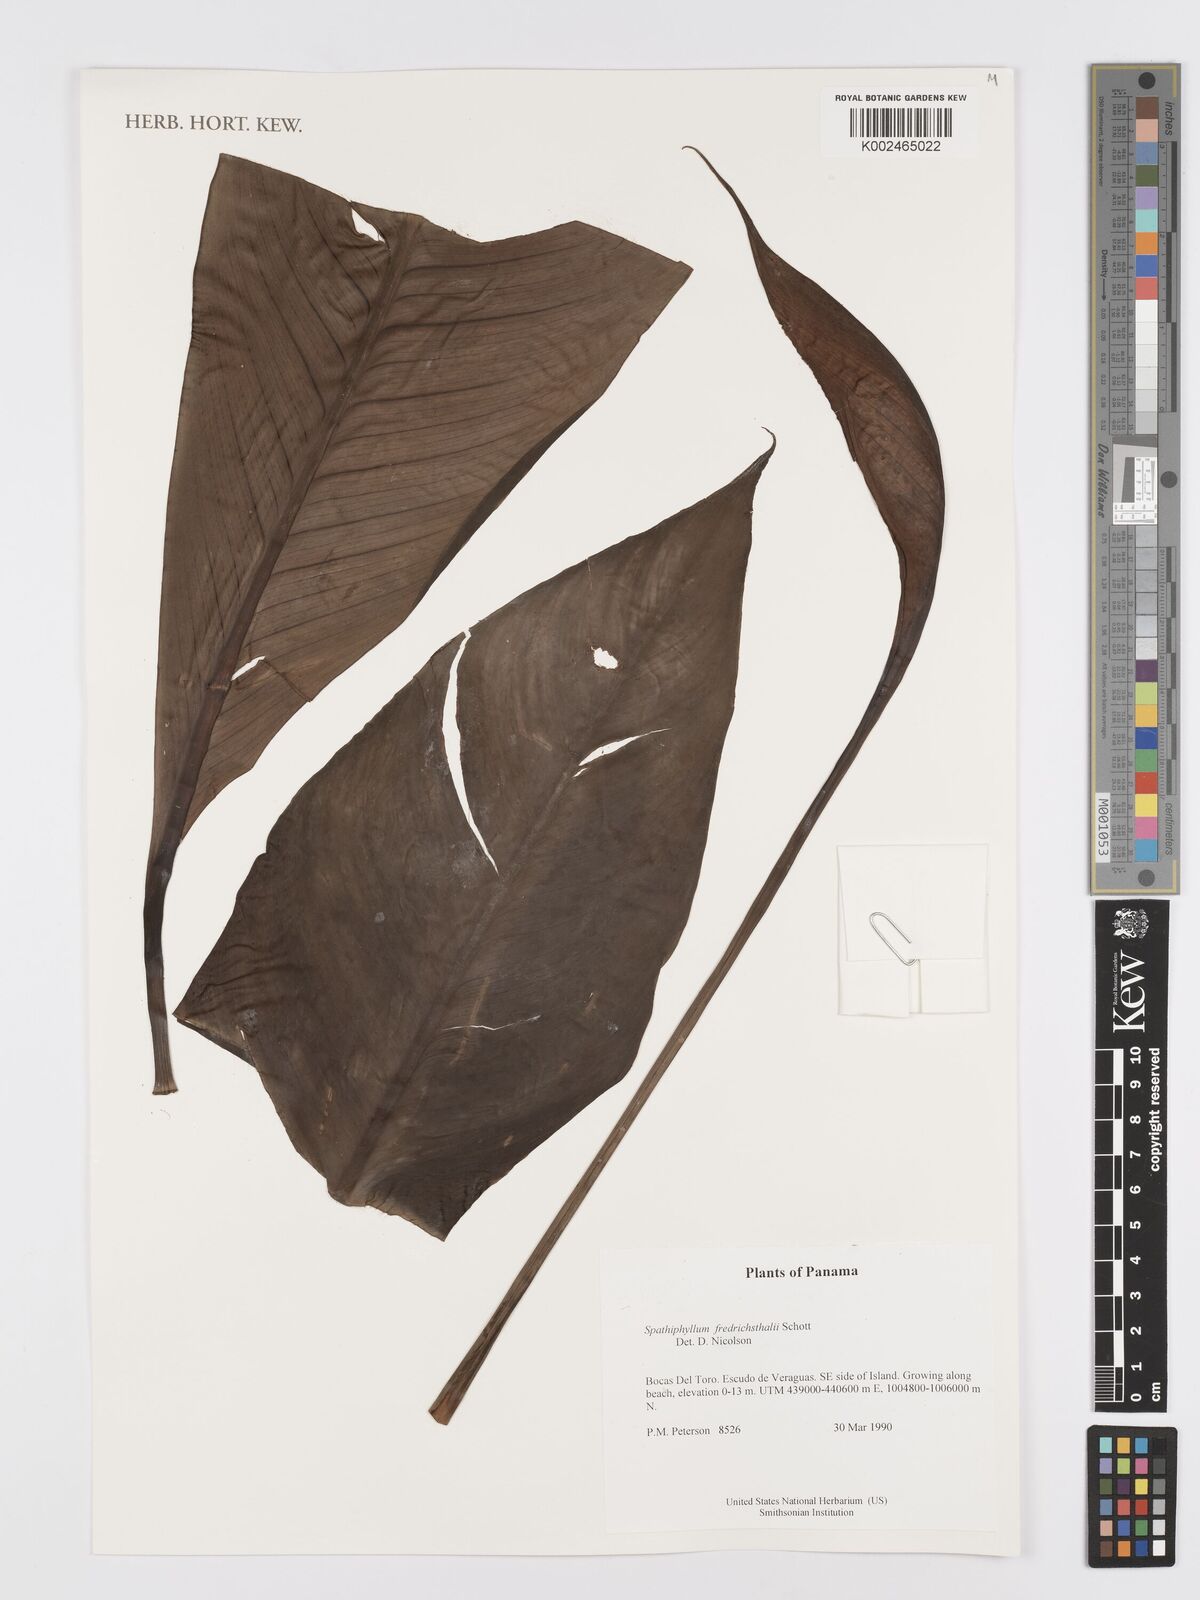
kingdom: Plantae
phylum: Tracheophyta
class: Liliopsida
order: Alismatales
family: Araceae
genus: Spathiphyllum
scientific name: Spathiphyllum friedrichsthalii
